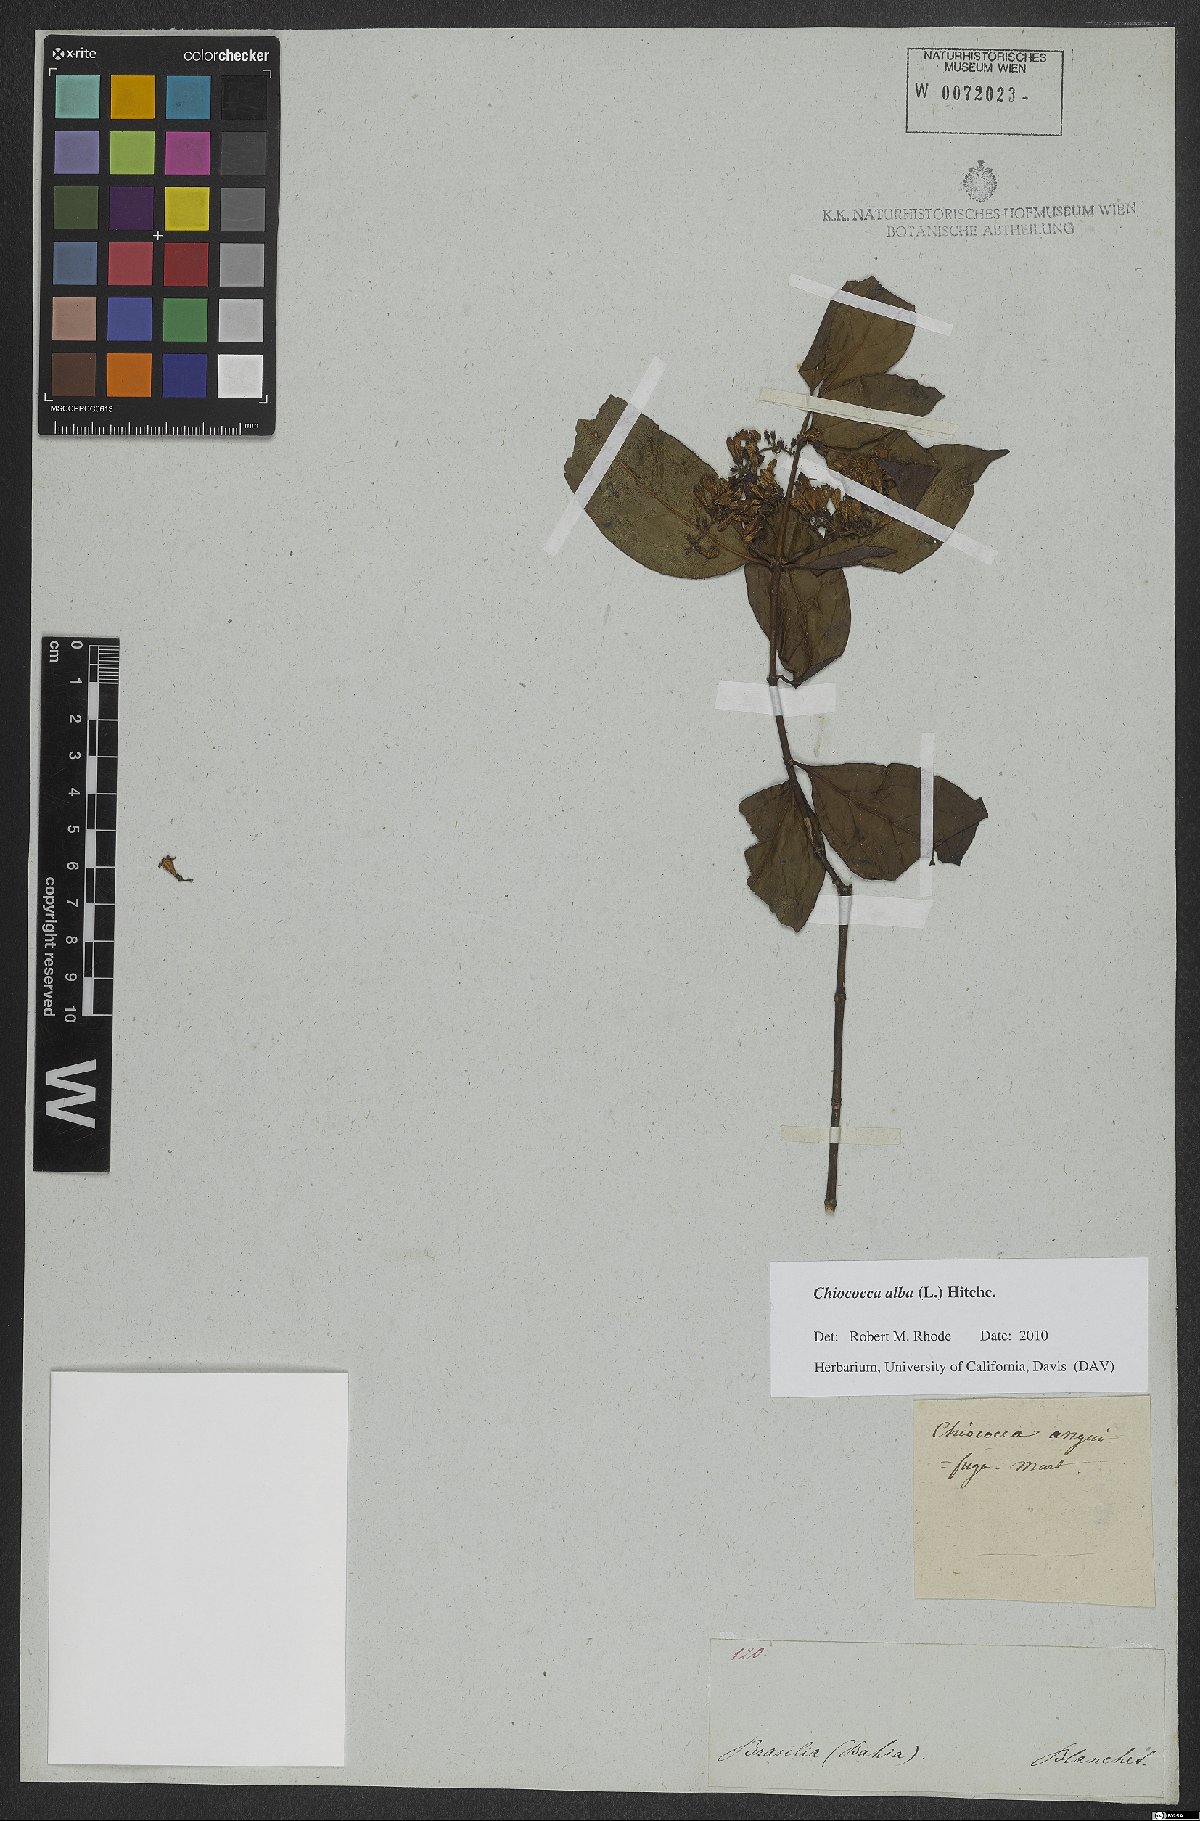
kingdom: Plantae
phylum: Tracheophyta
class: Magnoliopsida
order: Gentianales
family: Rubiaceae
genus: Chiococca
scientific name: Chiococca alba
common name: Snowberry
